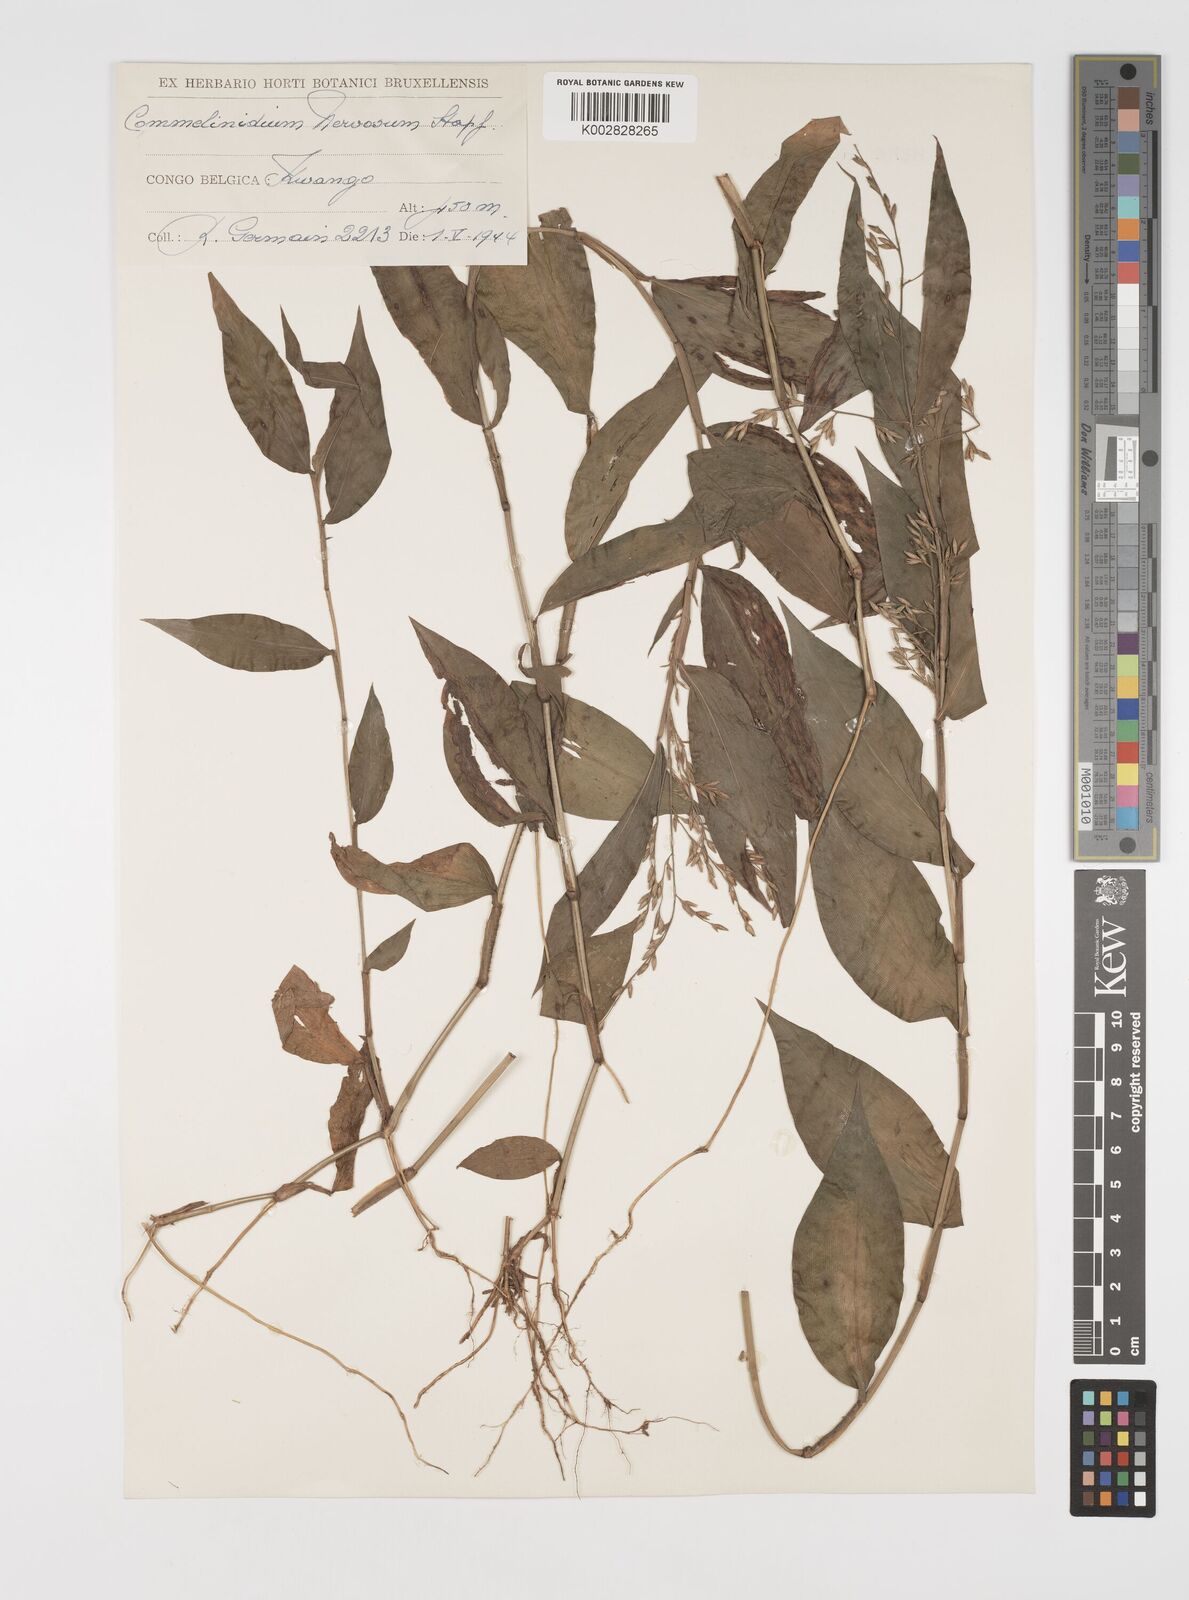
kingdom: Plantae
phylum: Tracheophyta
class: Liliopsida
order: Poales
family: Poaceae
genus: Acroceras
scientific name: Acroceras gabunense
